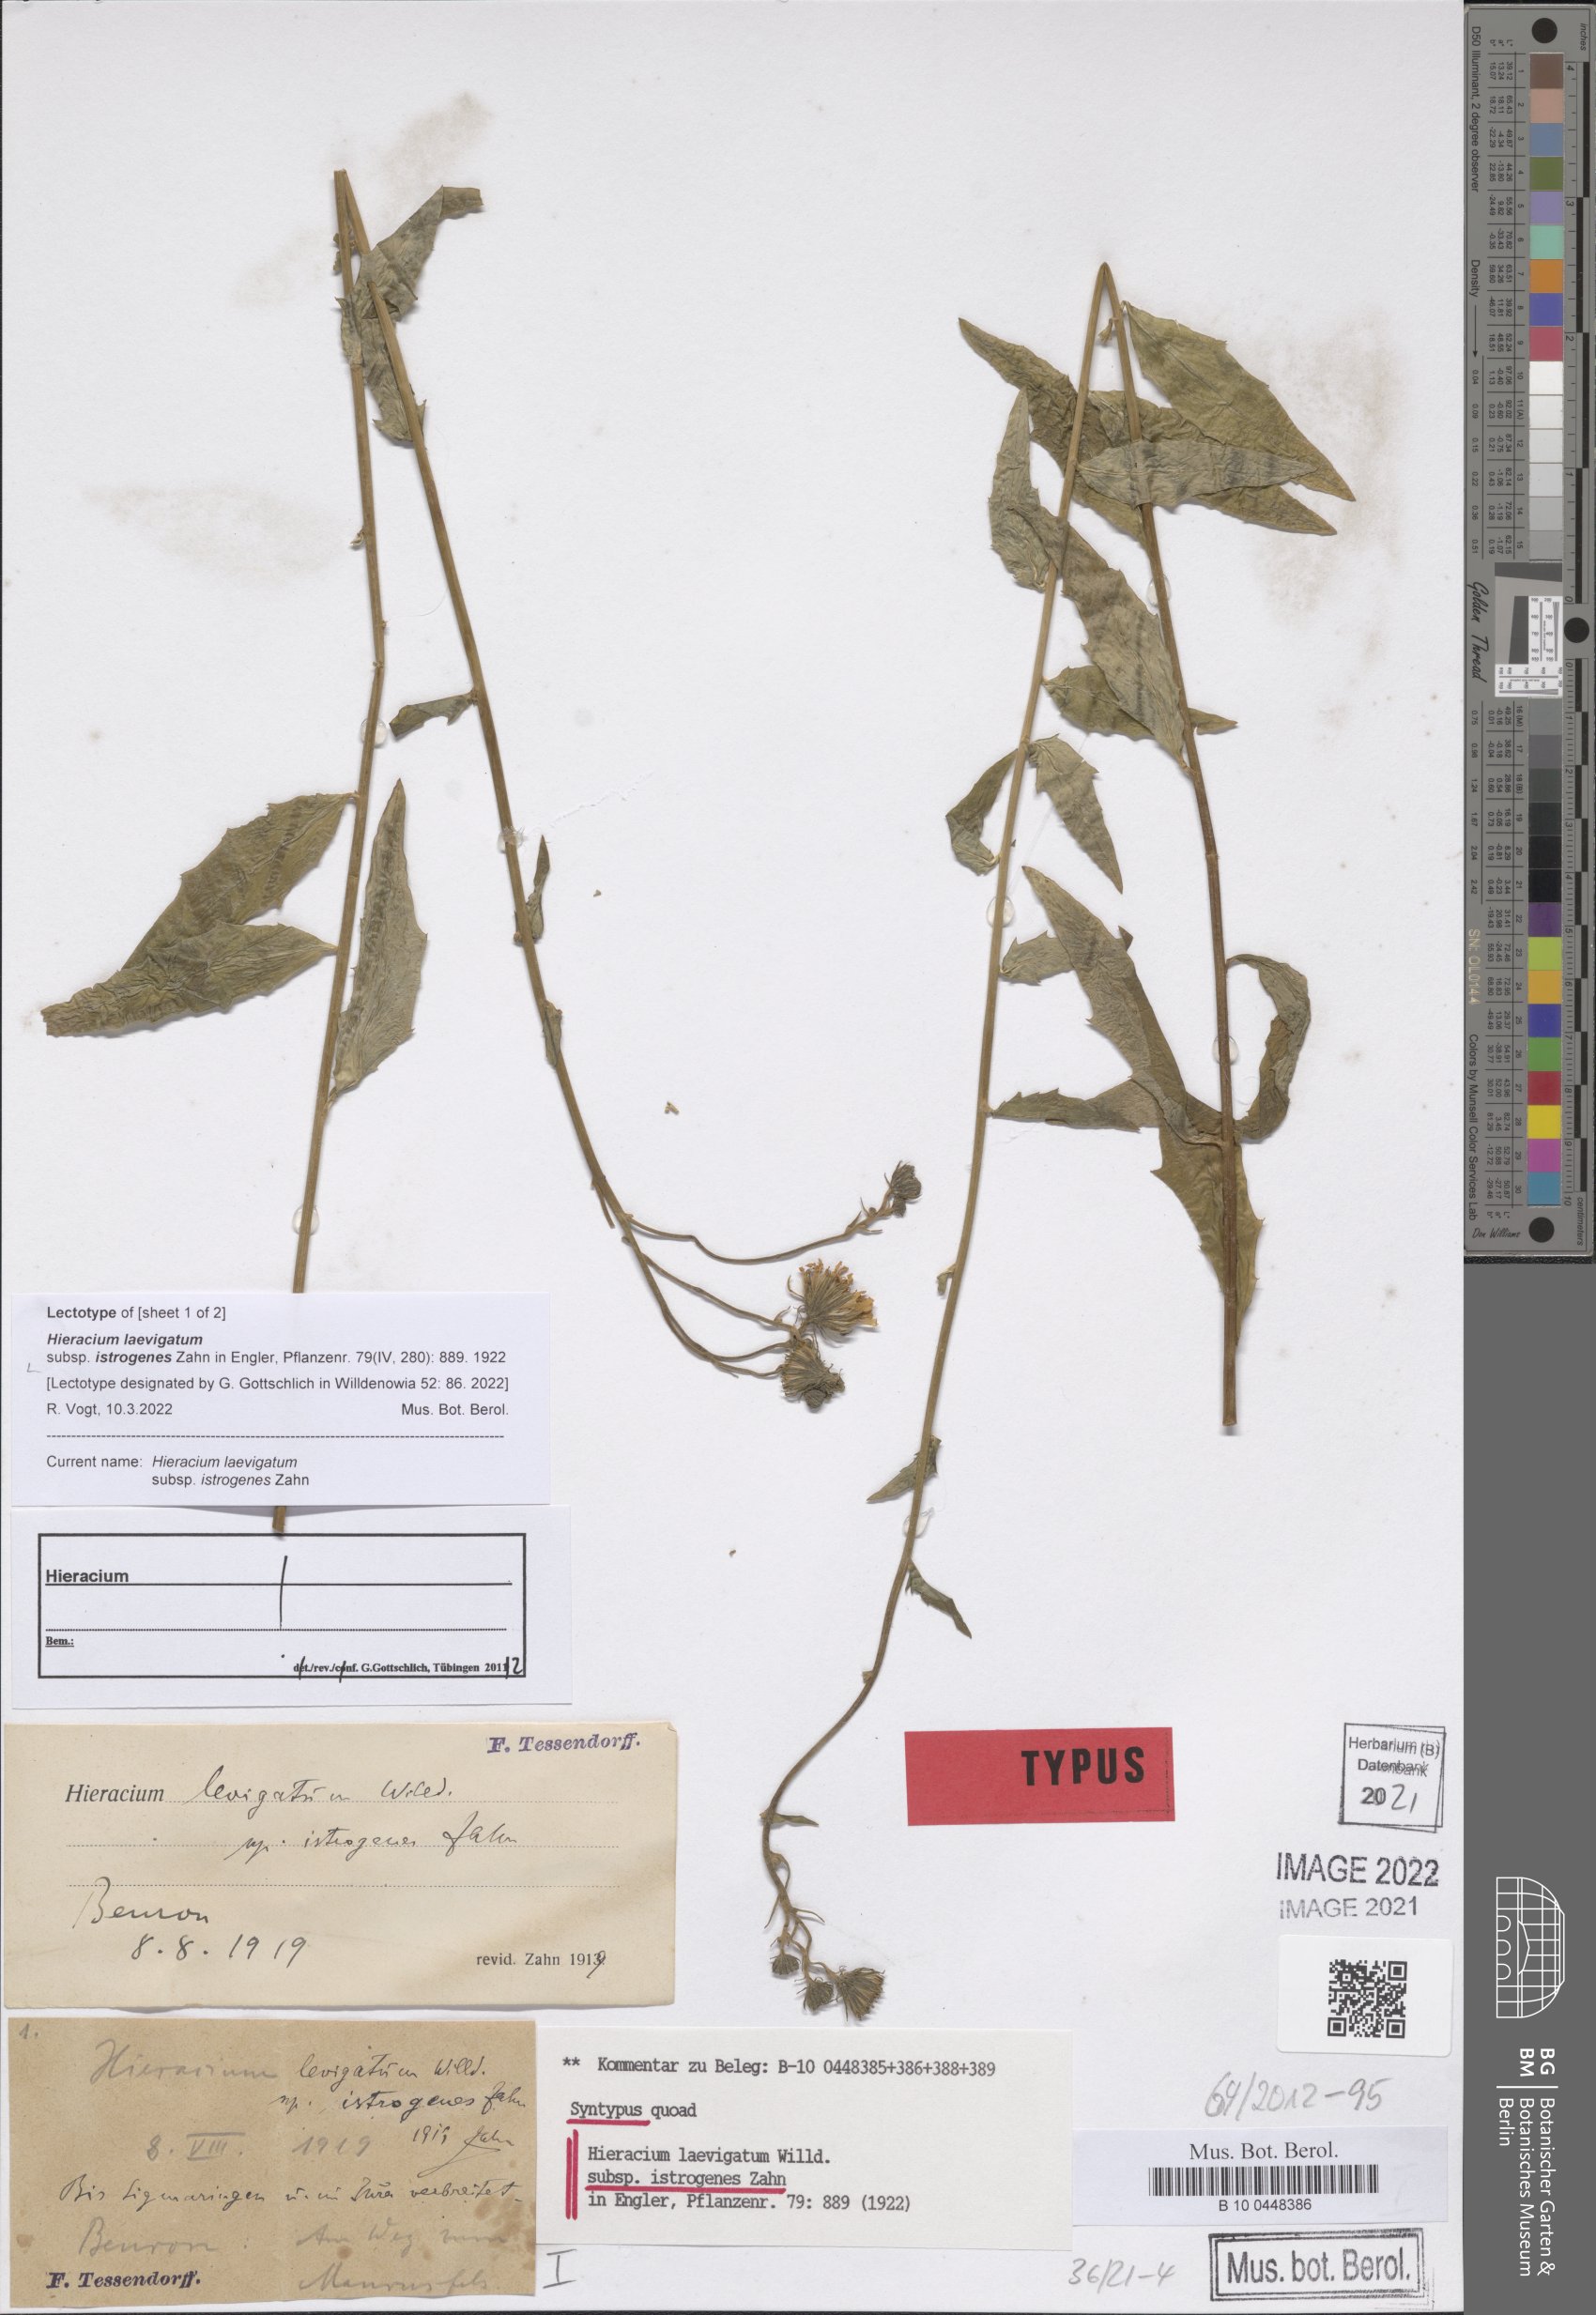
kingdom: Plantae
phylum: Tracheophyta
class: Magnoliopsida
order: Asterales
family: Asteraceae
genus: Hieracium
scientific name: Hieracium laevigatum
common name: Smooth hawkweed
